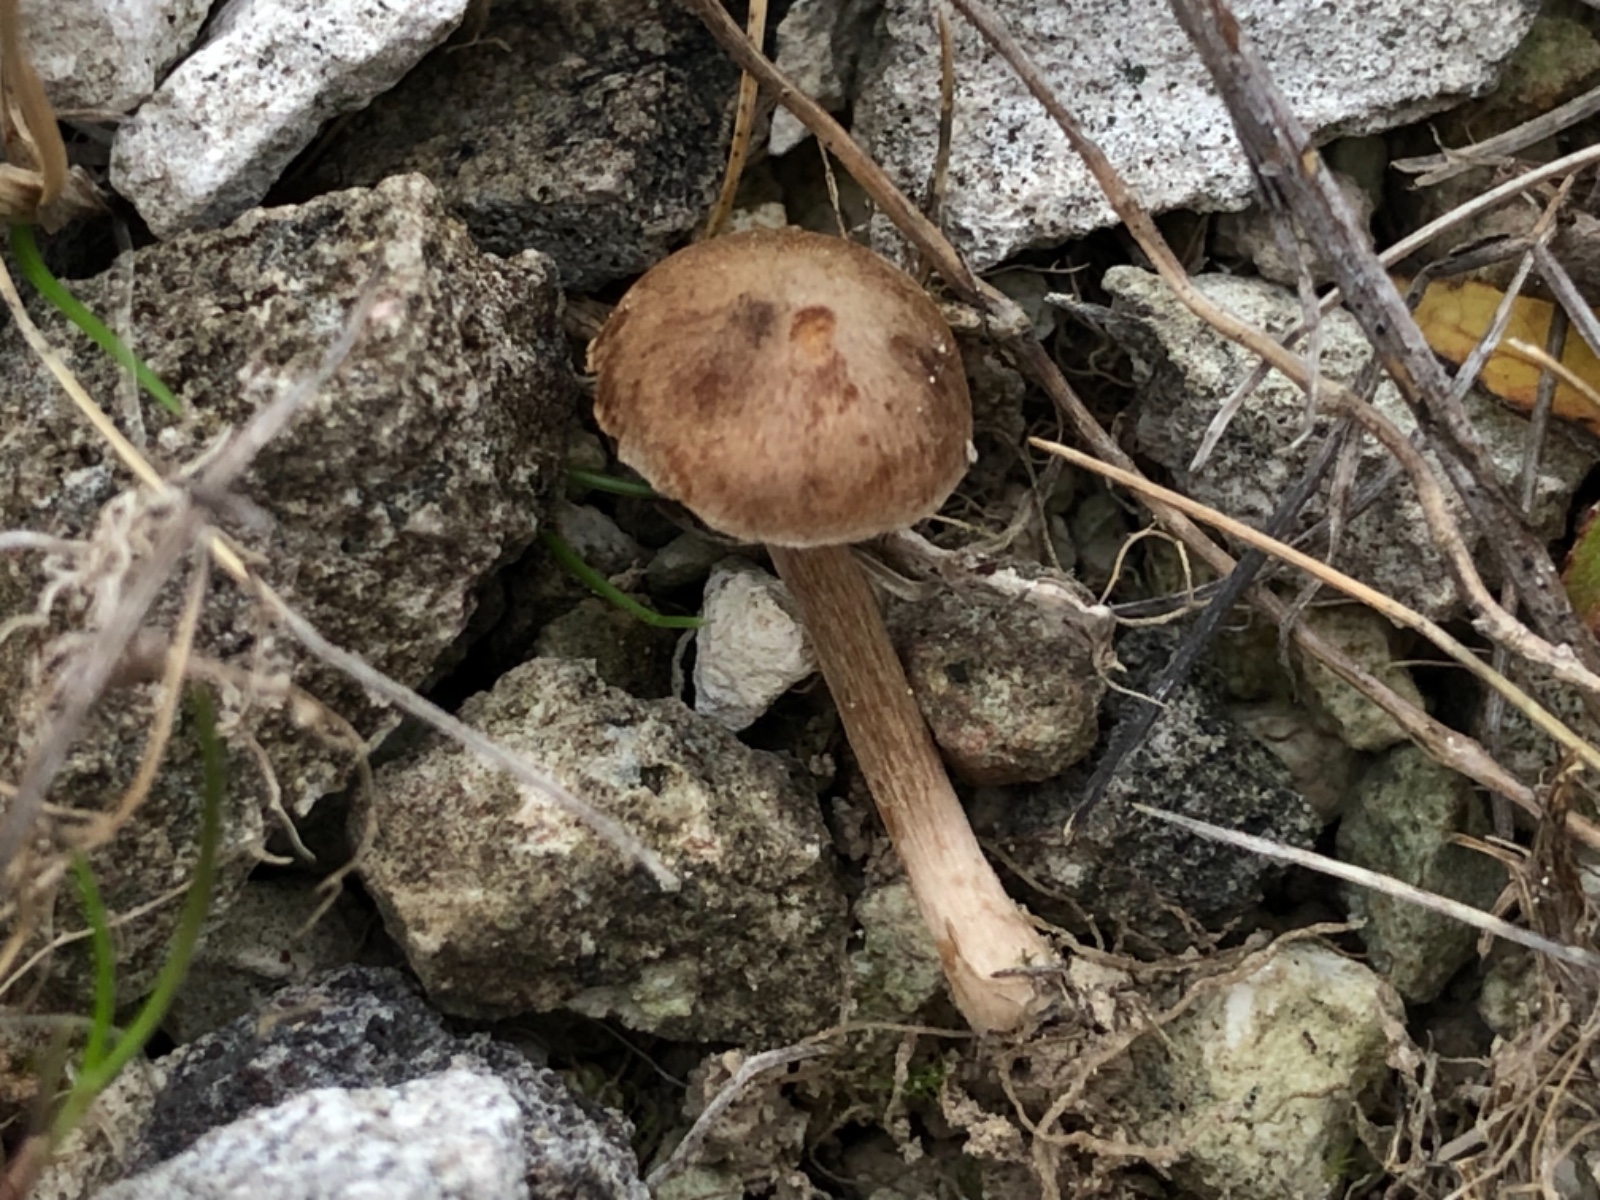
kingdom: Fungi
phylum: Basidiomycota
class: Agaricomycetes
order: Agaricales
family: Inocybaceae
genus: Inocybe
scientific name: Inocybe
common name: trævlhat
